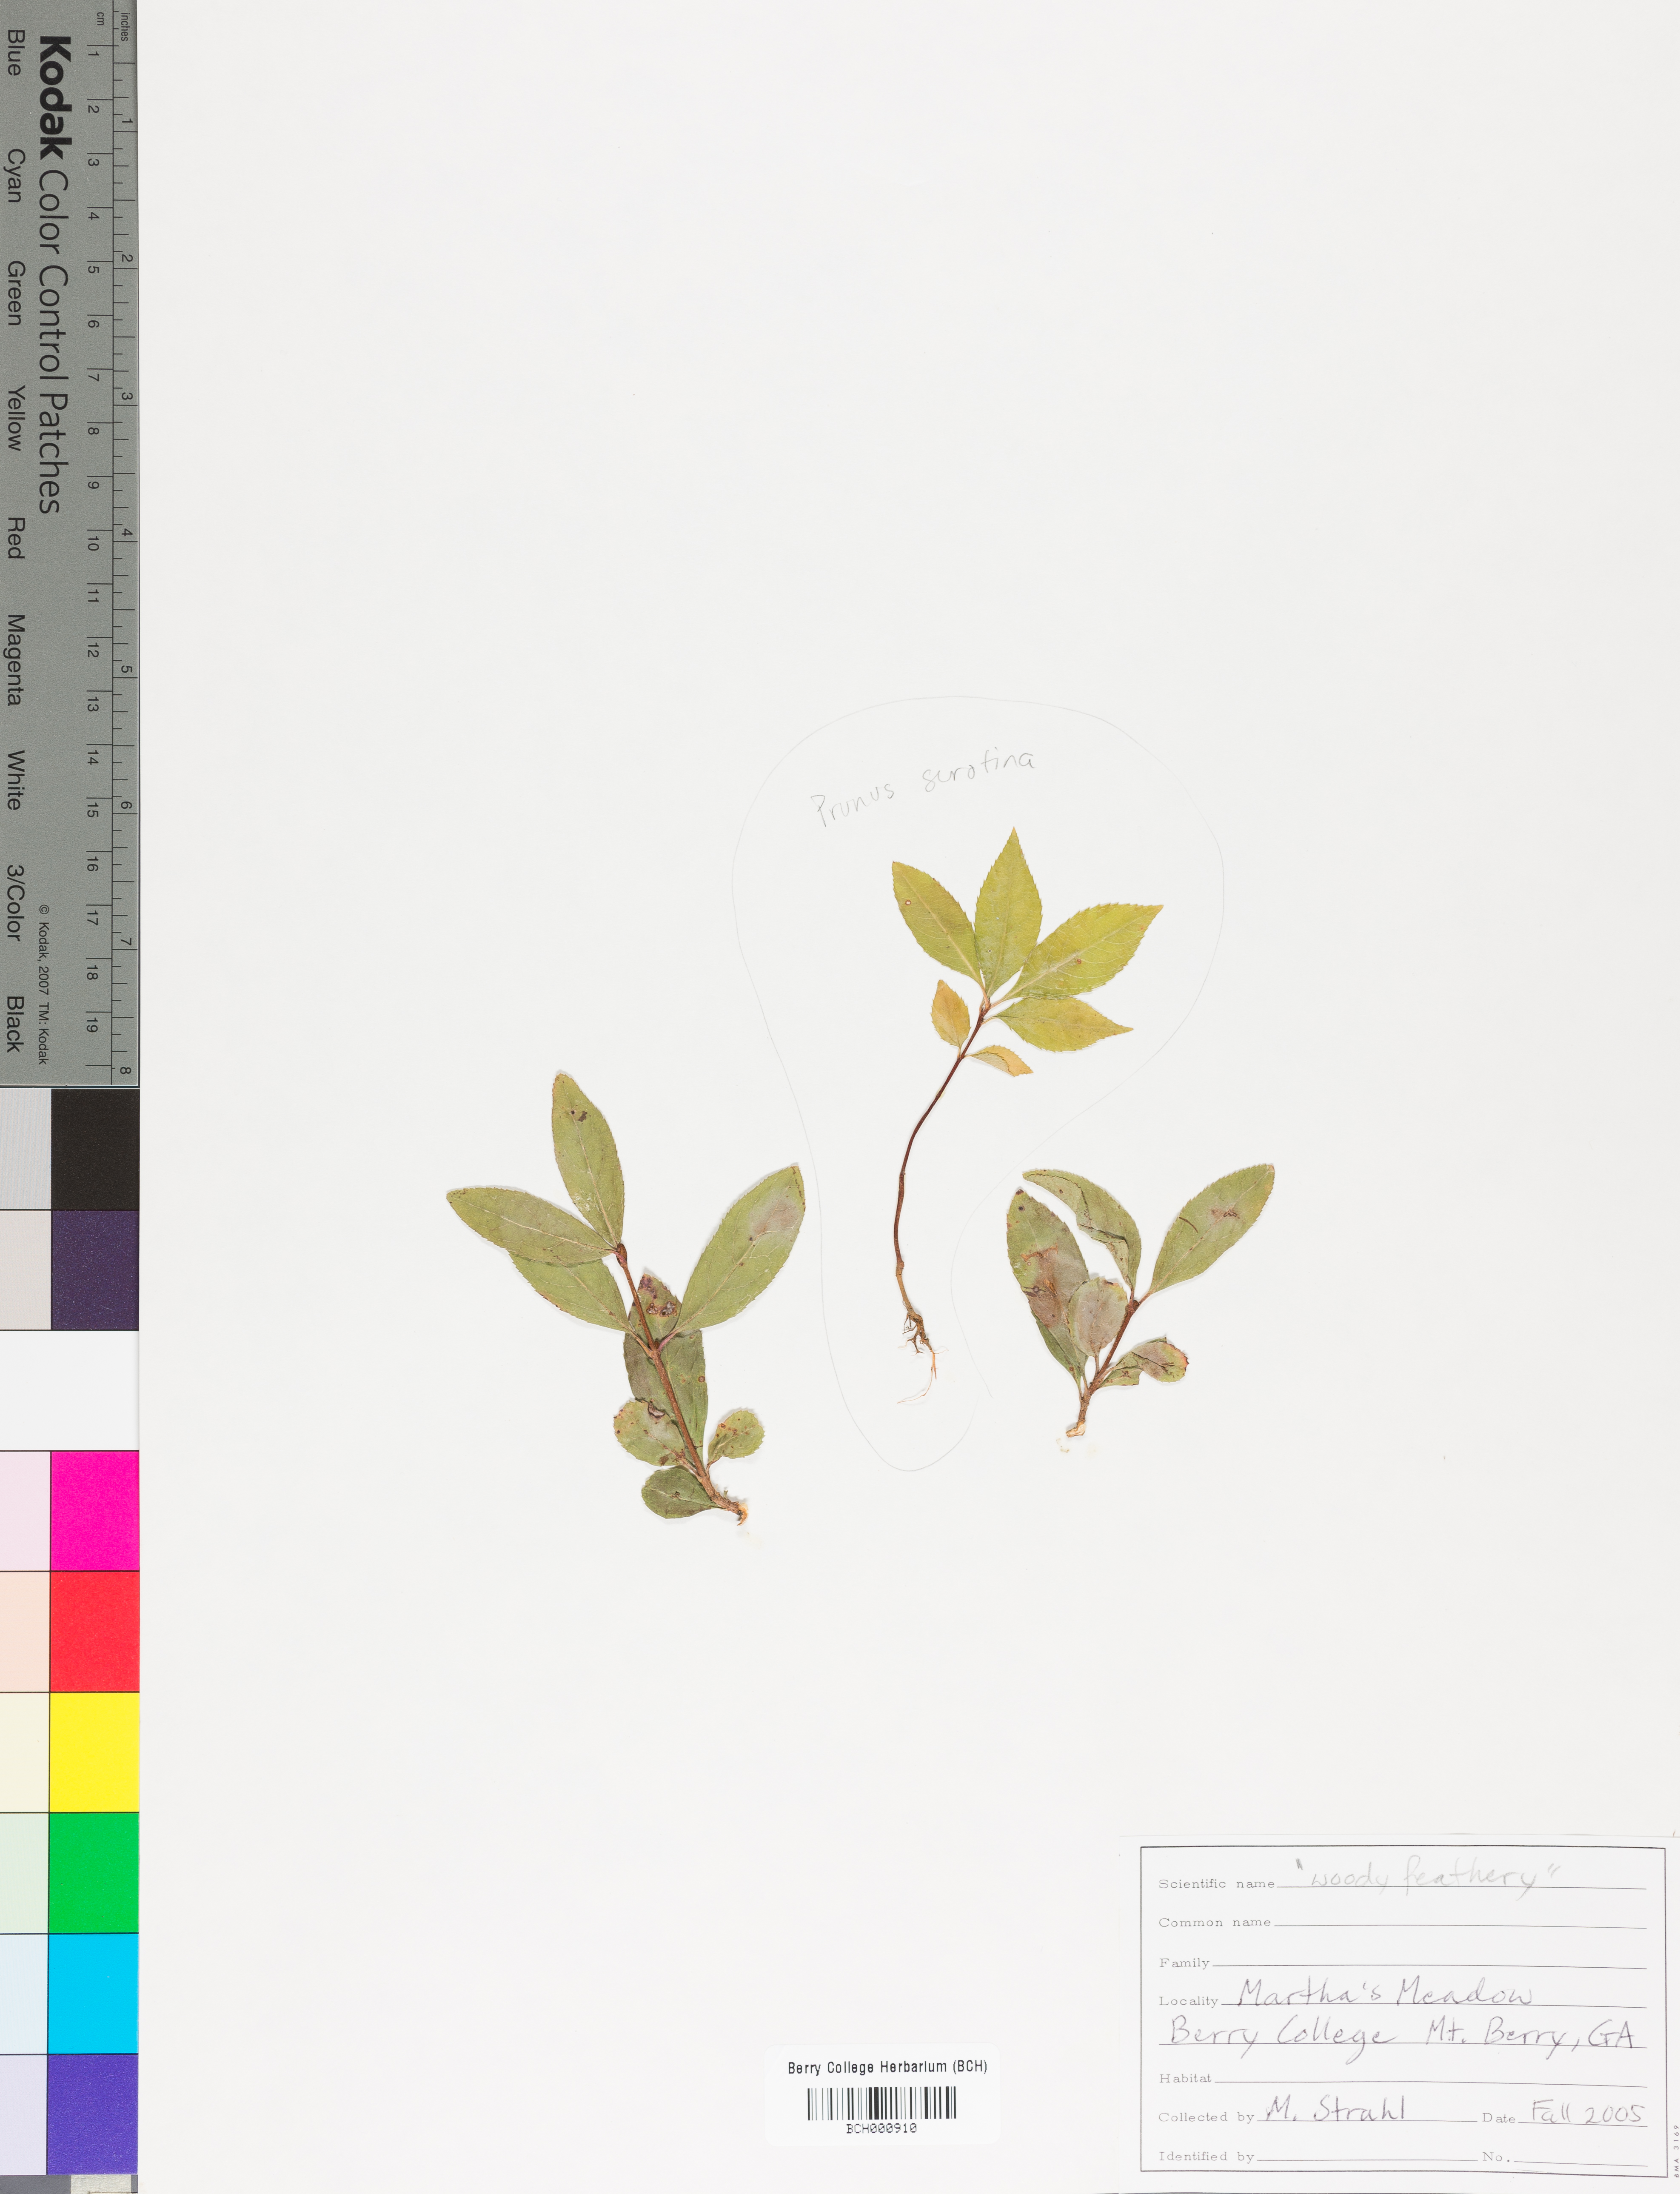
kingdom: Plantae
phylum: Tracheophyta
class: Magnoliopsida
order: Lamiales
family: Acanthaceae
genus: Adhatoda
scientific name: Adhatoda
